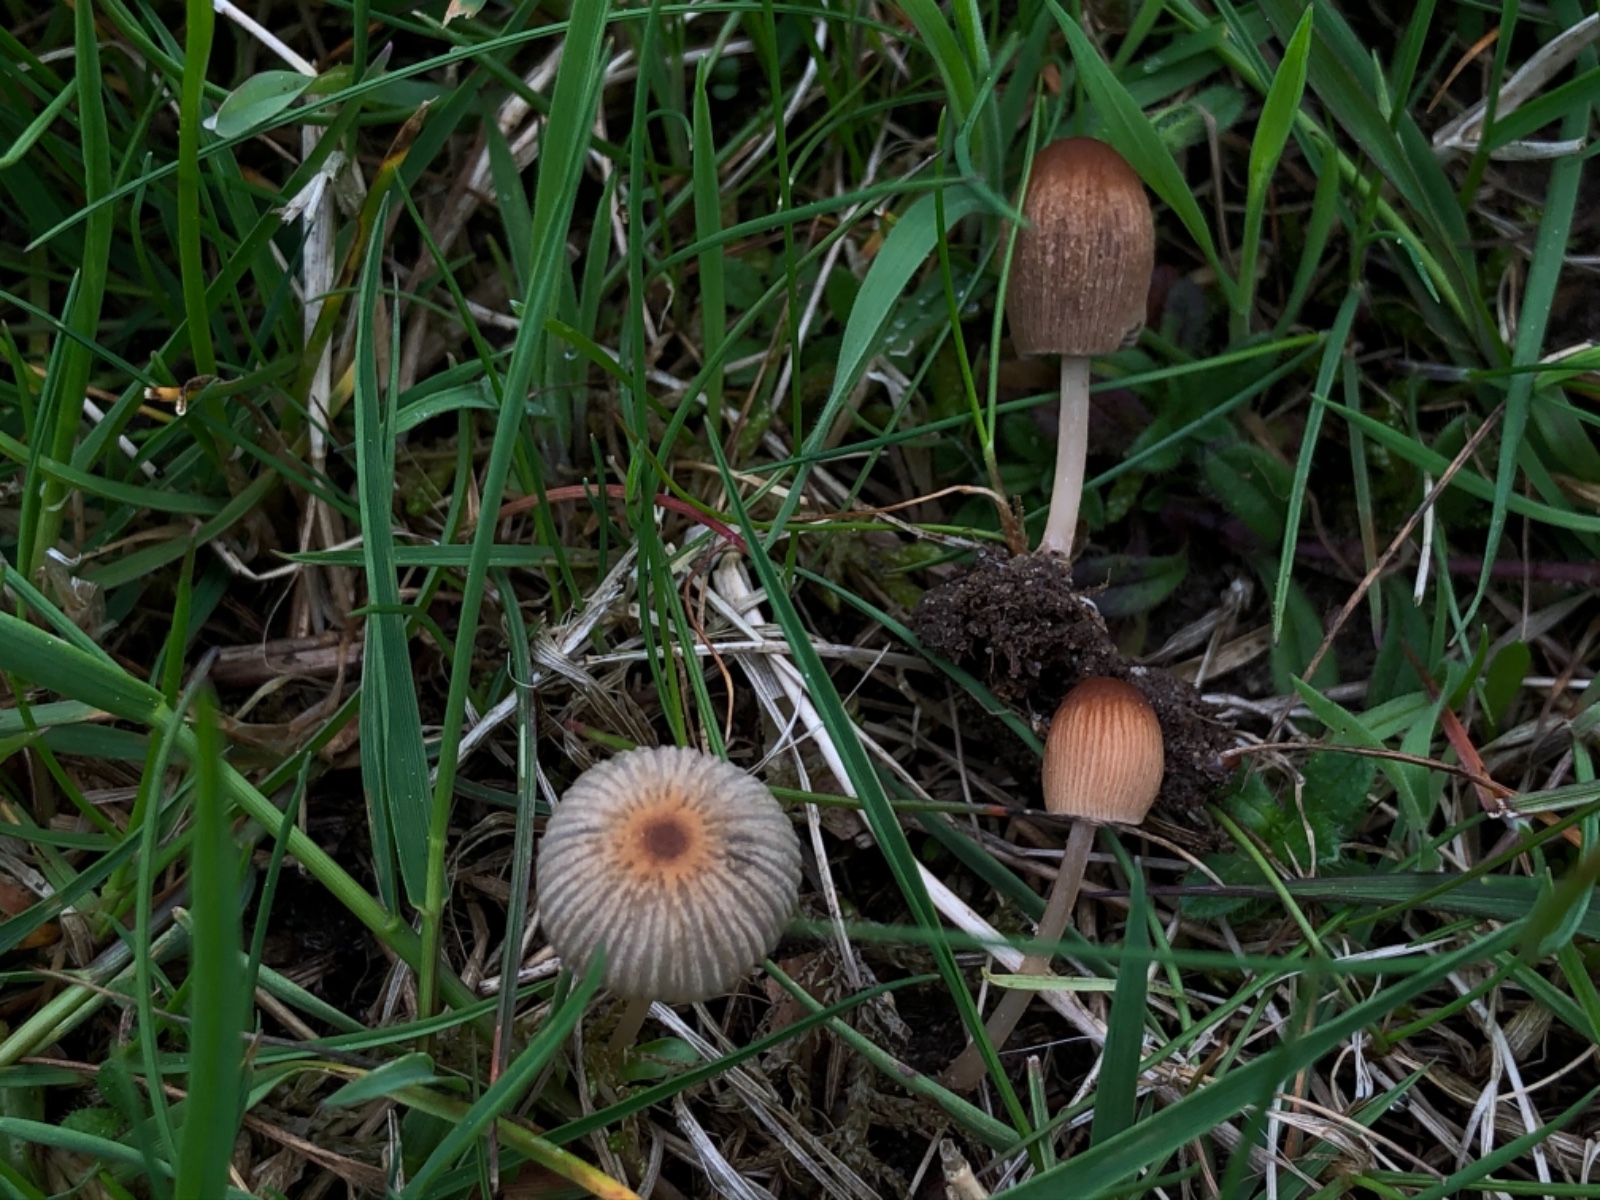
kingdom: Fungi
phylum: Basidiomycota
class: Agaricomycetes
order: Agaricales
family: Psathyrellaceae
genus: Parasola
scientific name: Parasola schroeteri
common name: bredsporet hjulhat
